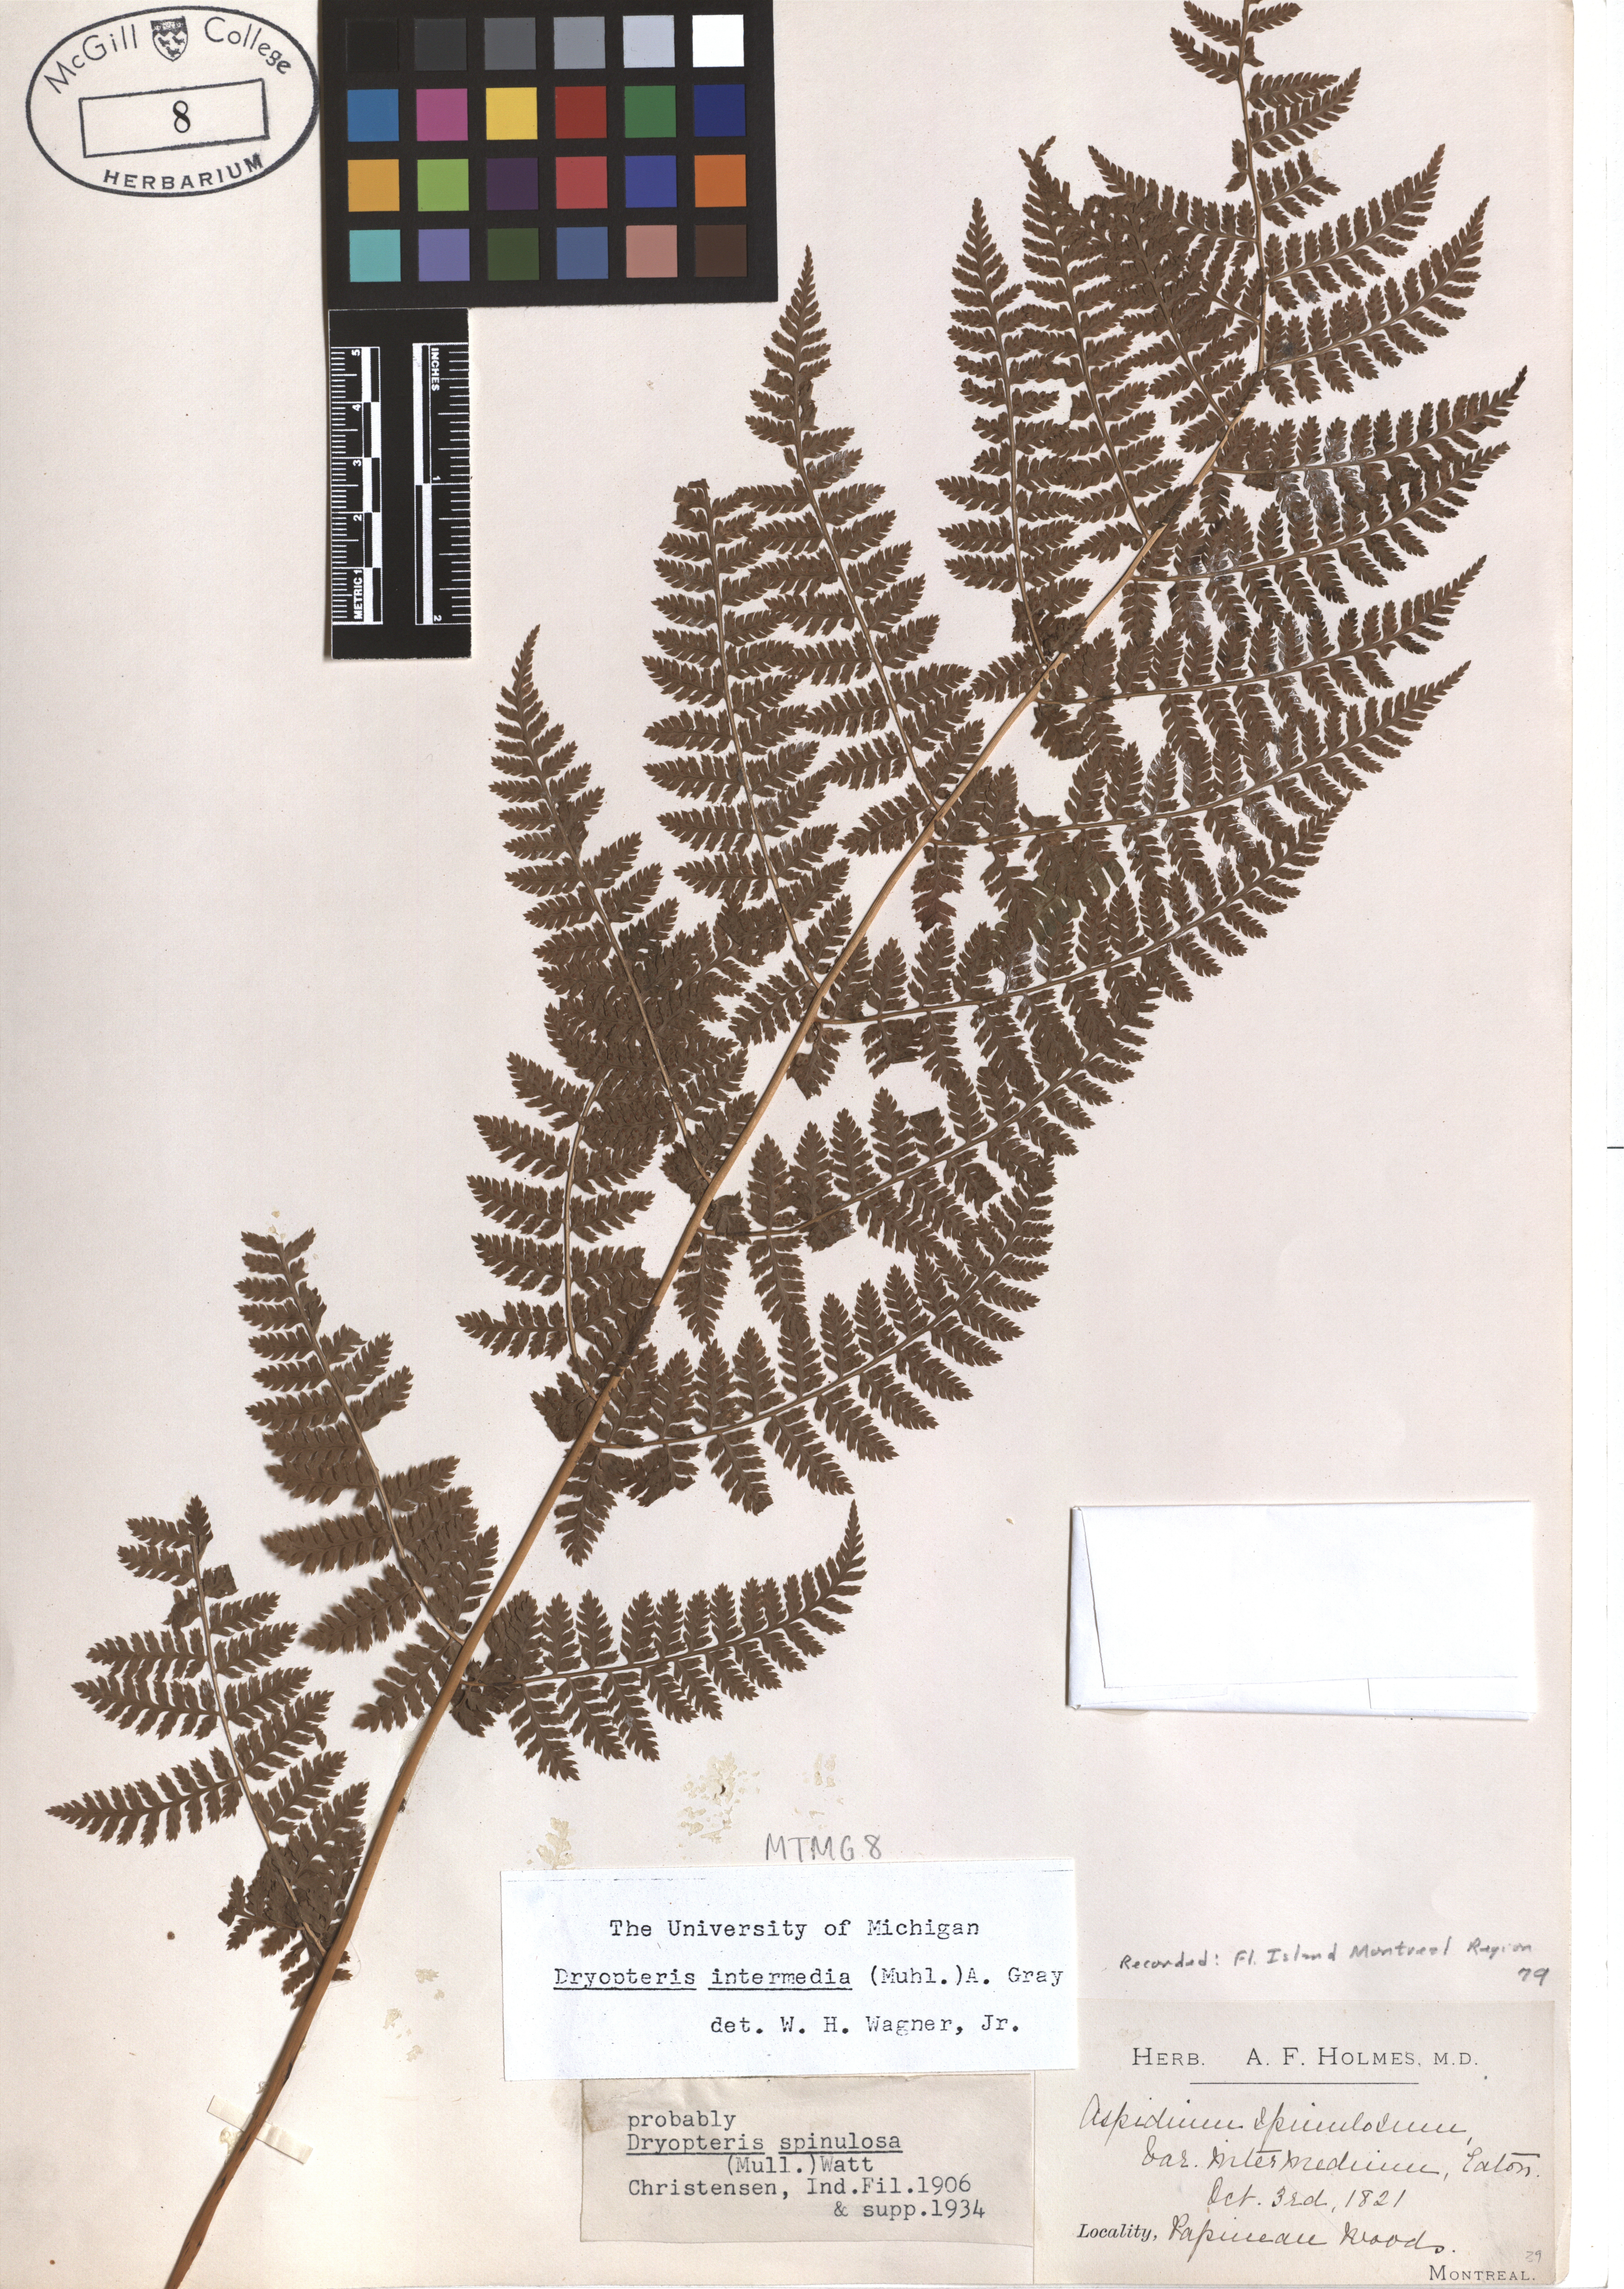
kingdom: Plantae
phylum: Tracheophyta
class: Polypodiopsida
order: Polypodiales
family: Dryopteridaceae
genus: Dryopteris
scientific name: Dryopteris intermedia
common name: Evergreen wood fern
